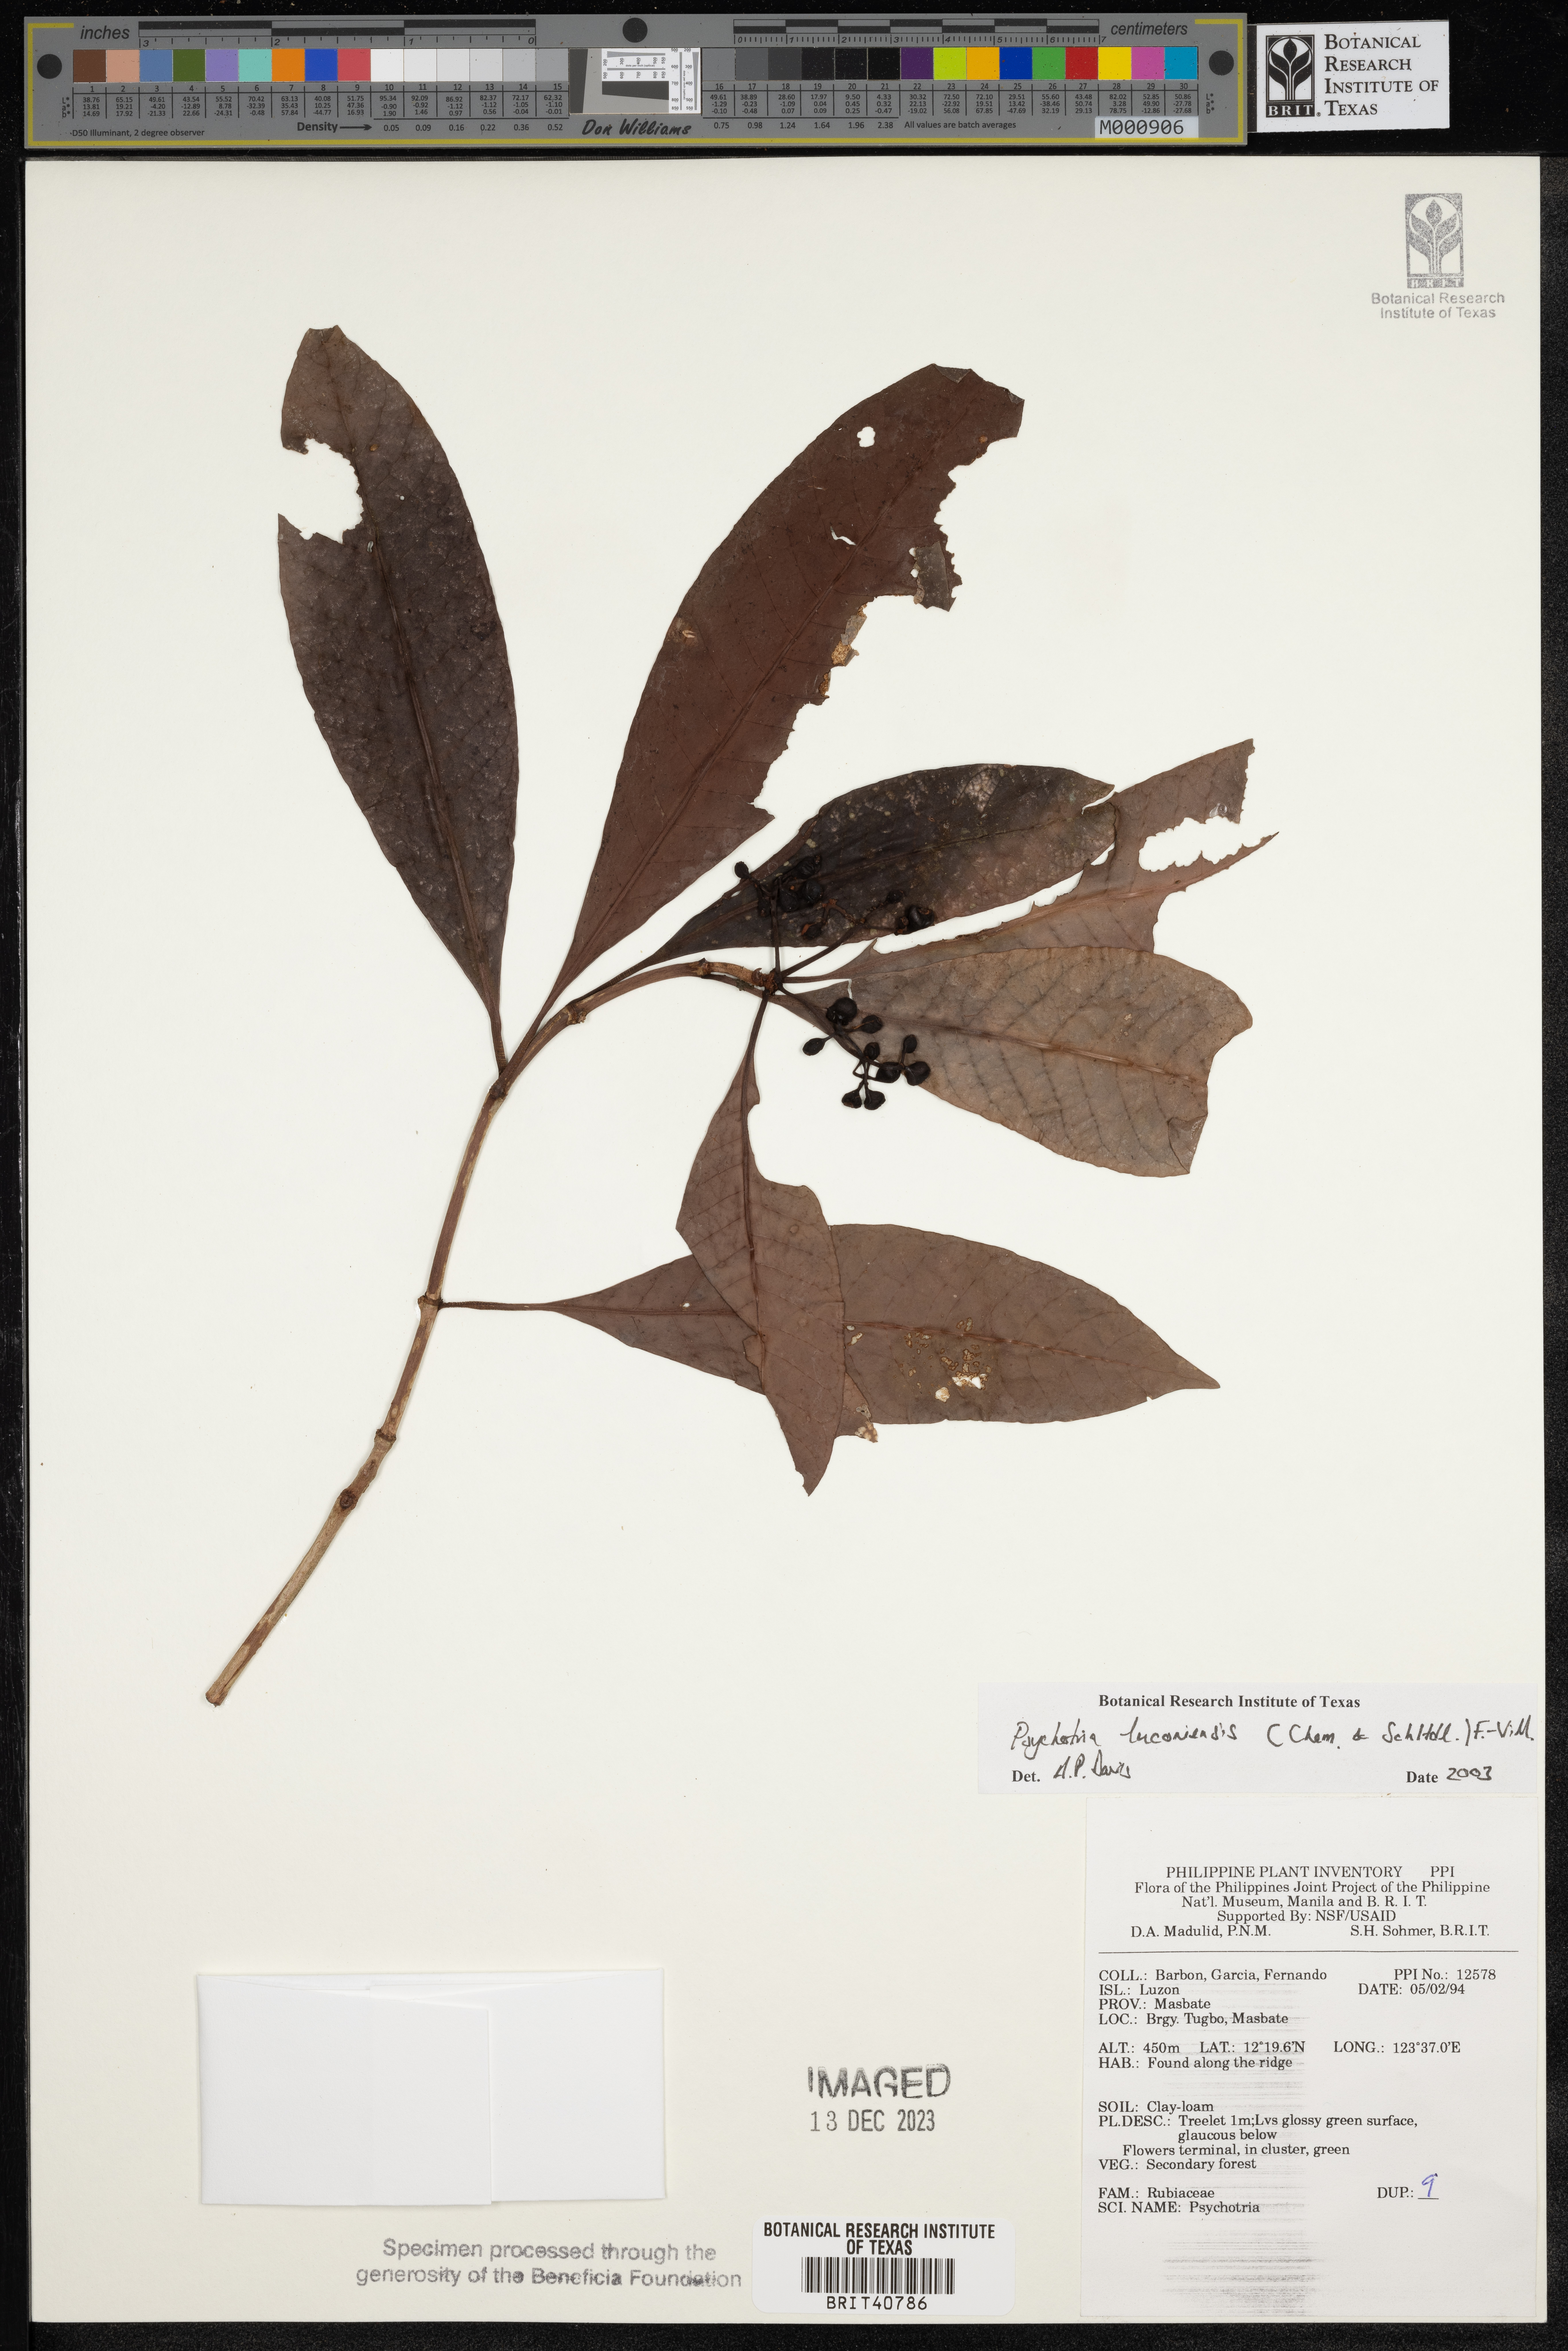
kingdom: Plantae
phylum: Tracheophyta
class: Magnoliopsida
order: Gentianales
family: Rubiaceae
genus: Psychotria
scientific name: Psychotria luzoniensis
